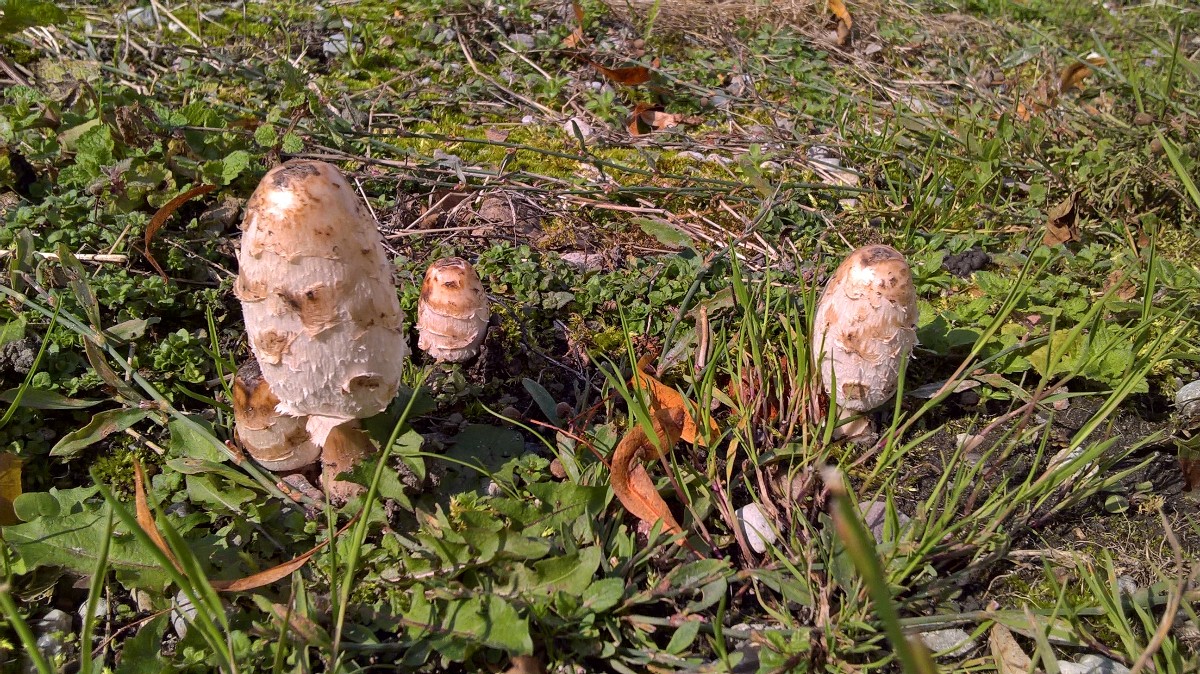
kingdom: Fungi
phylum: Basidiomycota
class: Agaricomycetes
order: Agaricales
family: Agaricaceae
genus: Coprinus
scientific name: Coprinus comatus
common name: stor parykhat
